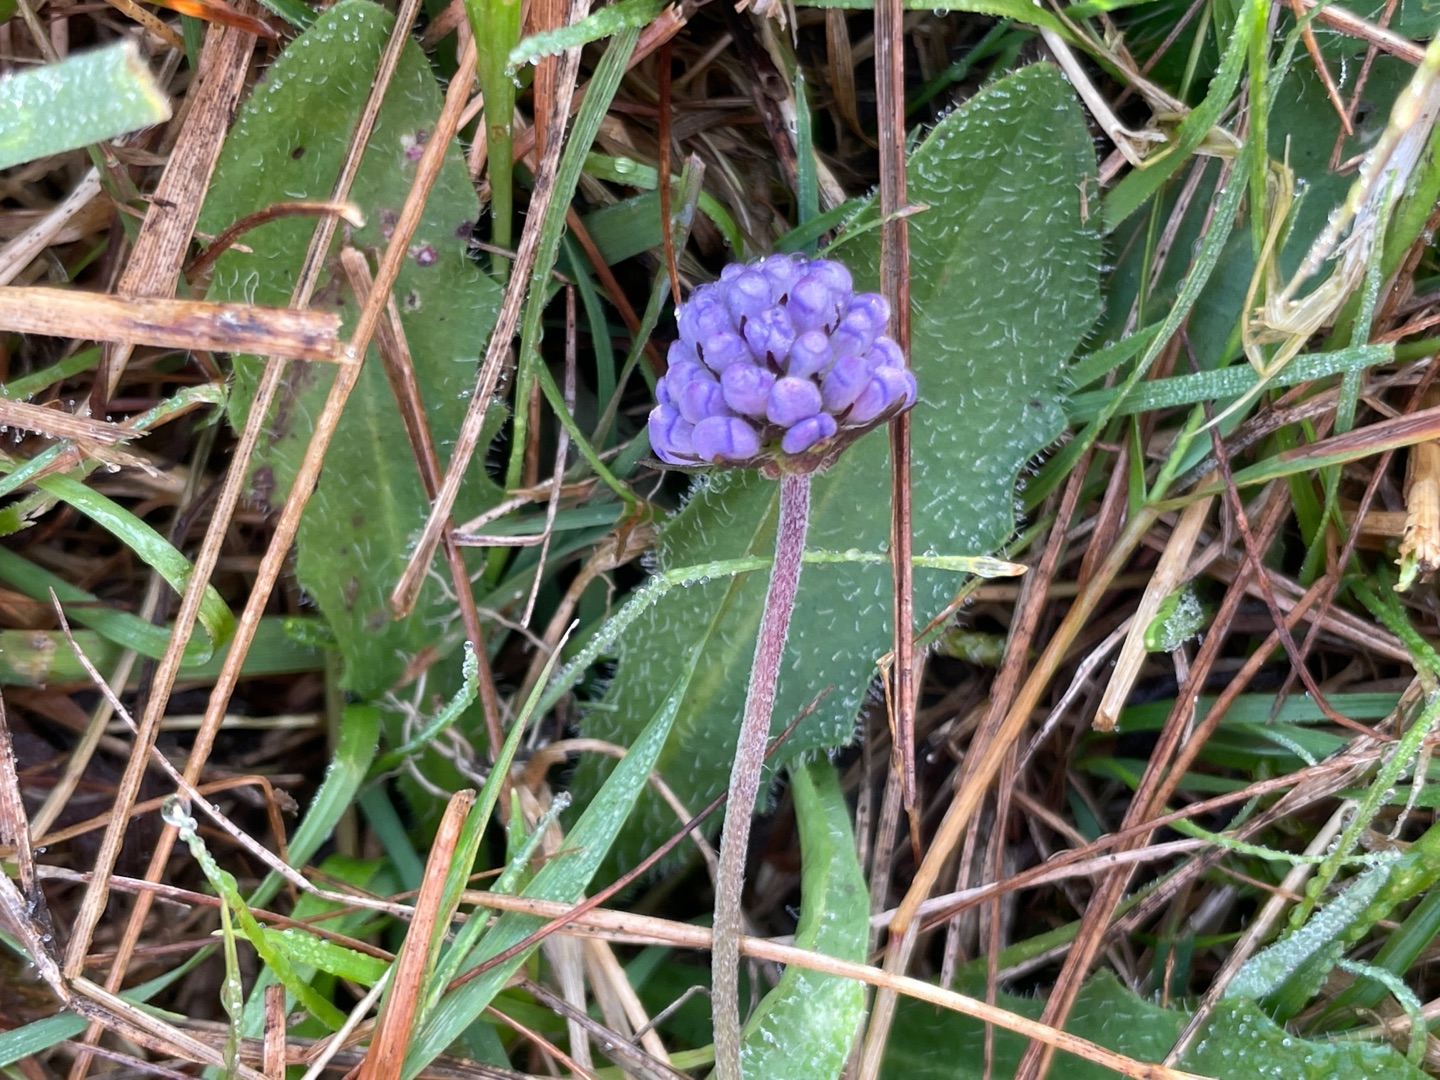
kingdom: Plantae
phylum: Tracheophyta
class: Magnoliopsida
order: Dipsacales
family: Caprifoliaceae
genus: Succisa
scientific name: Succisa pratensis
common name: Djævelsbid
